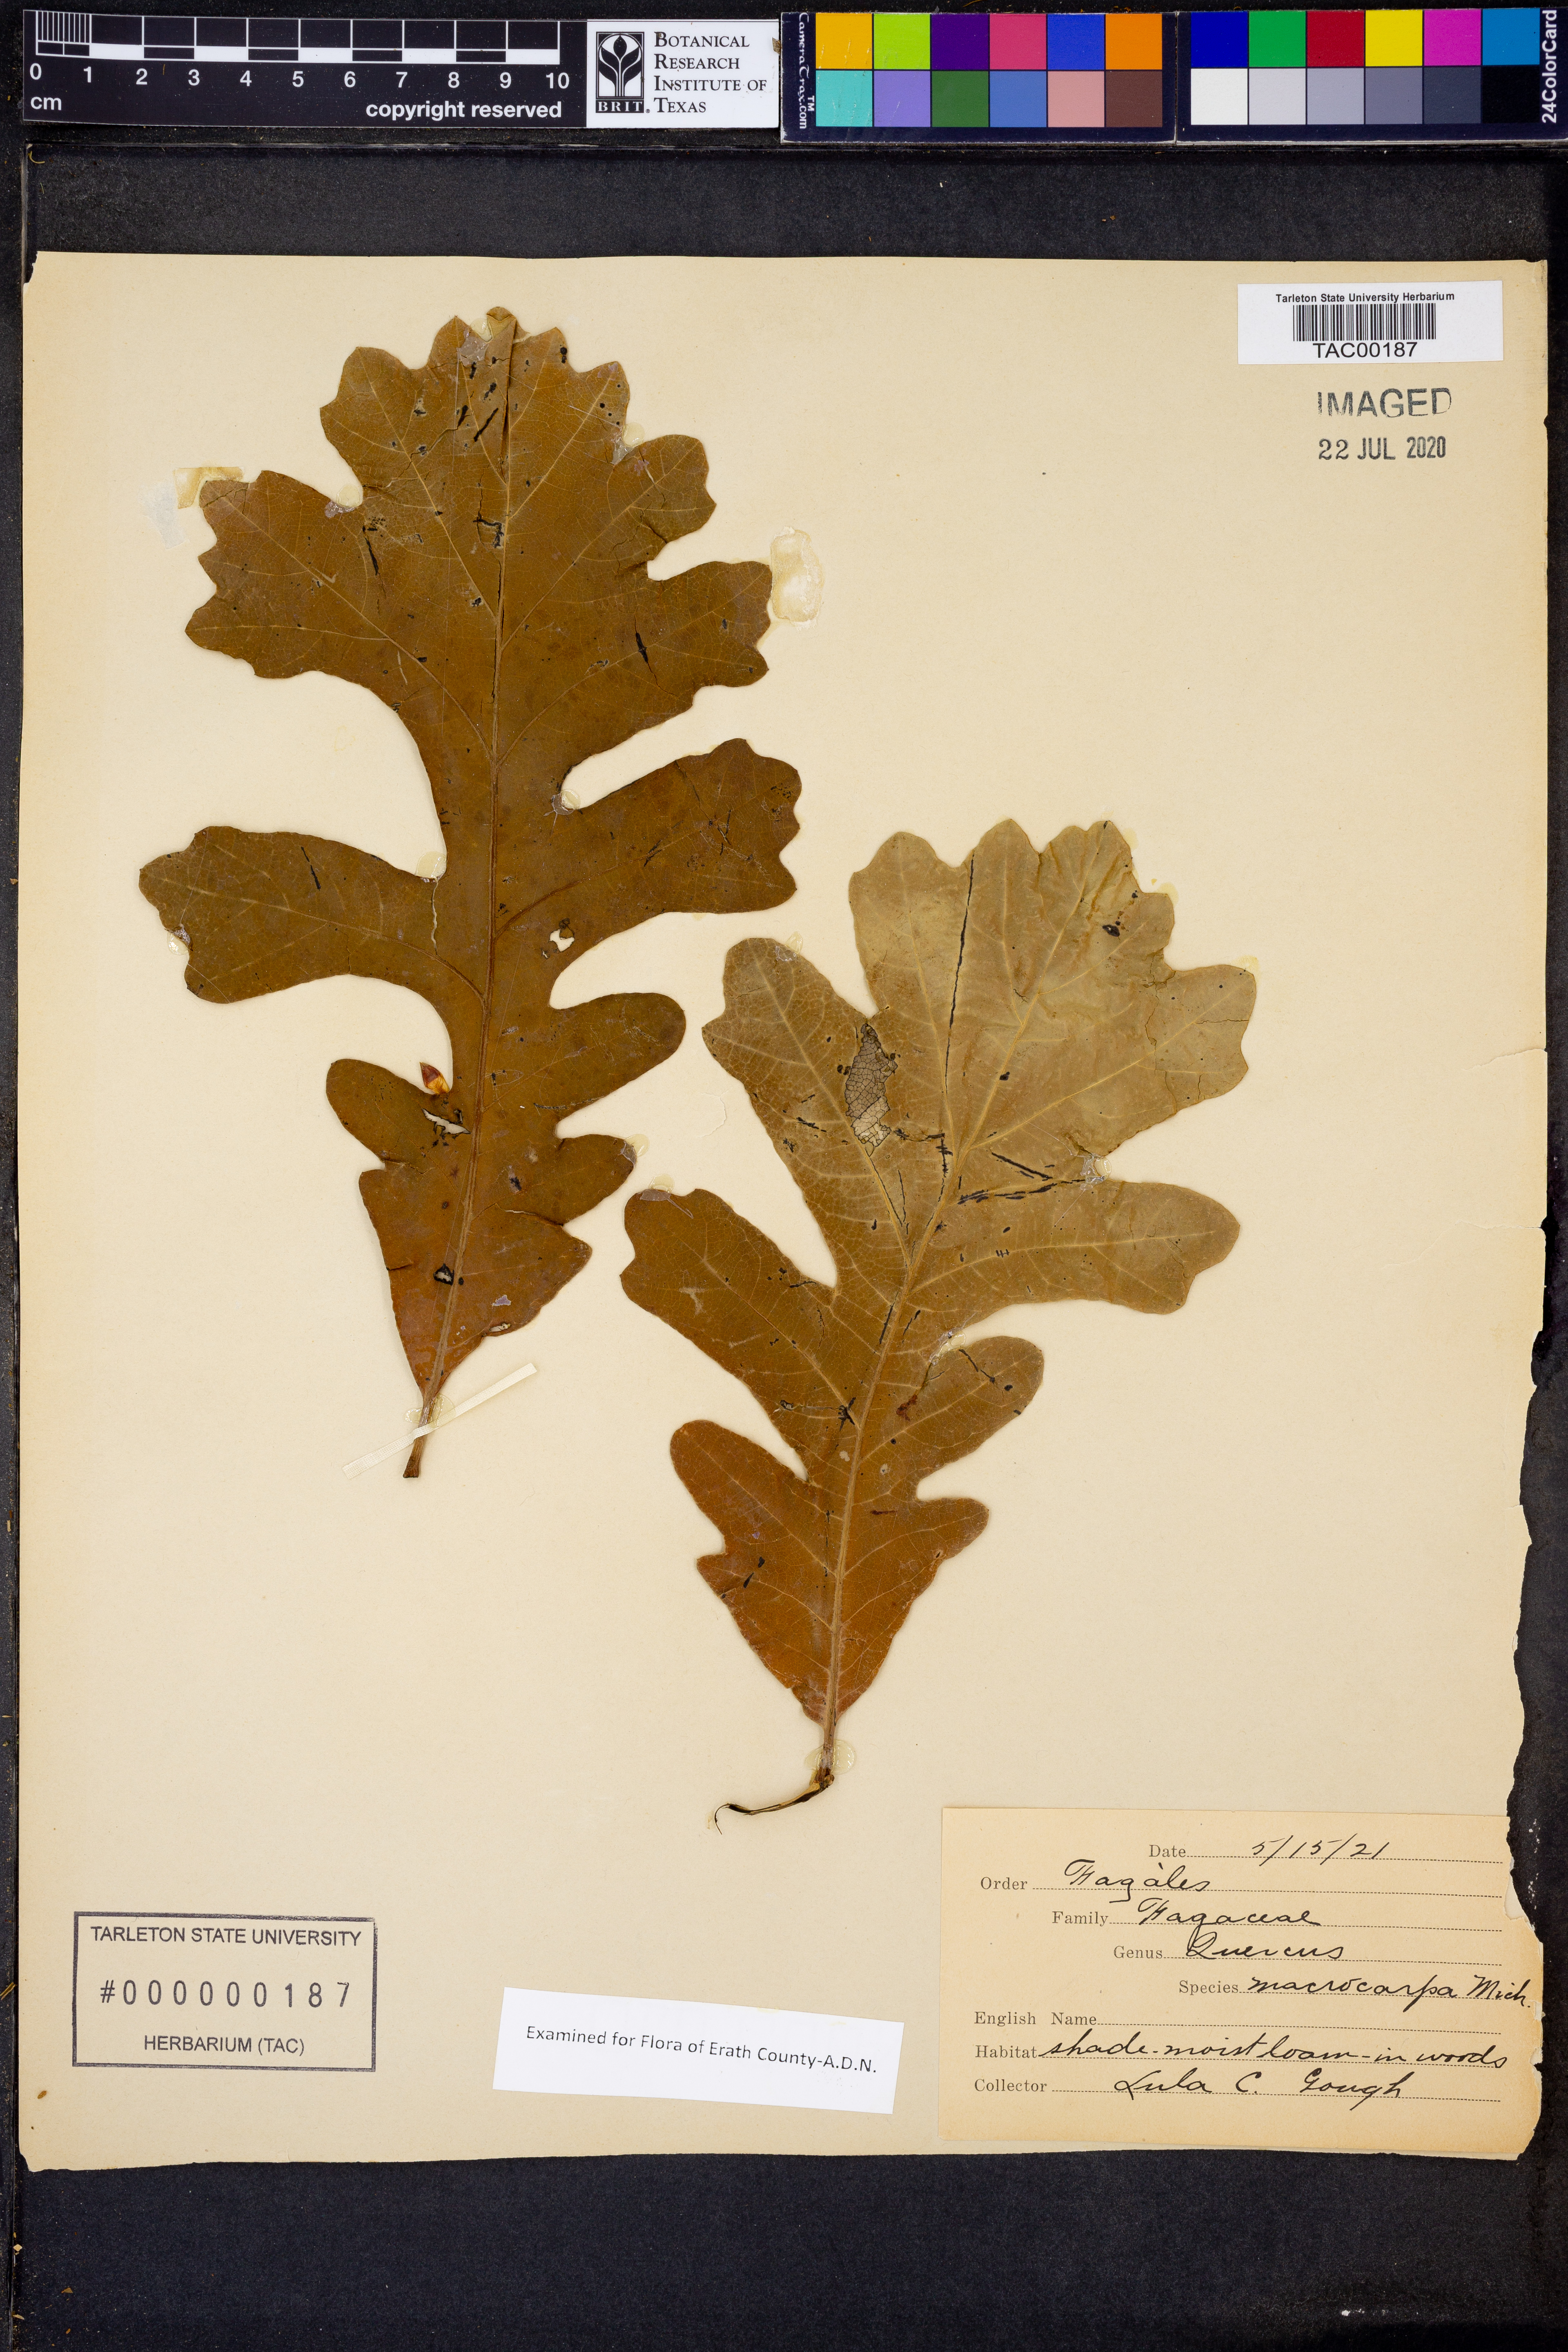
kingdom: Plantae
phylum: Tracheophyta
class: Magnoliopsida
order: Fagales
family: Fagaceae
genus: Quercus
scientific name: Quercus macrocarpa
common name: Bur oak
